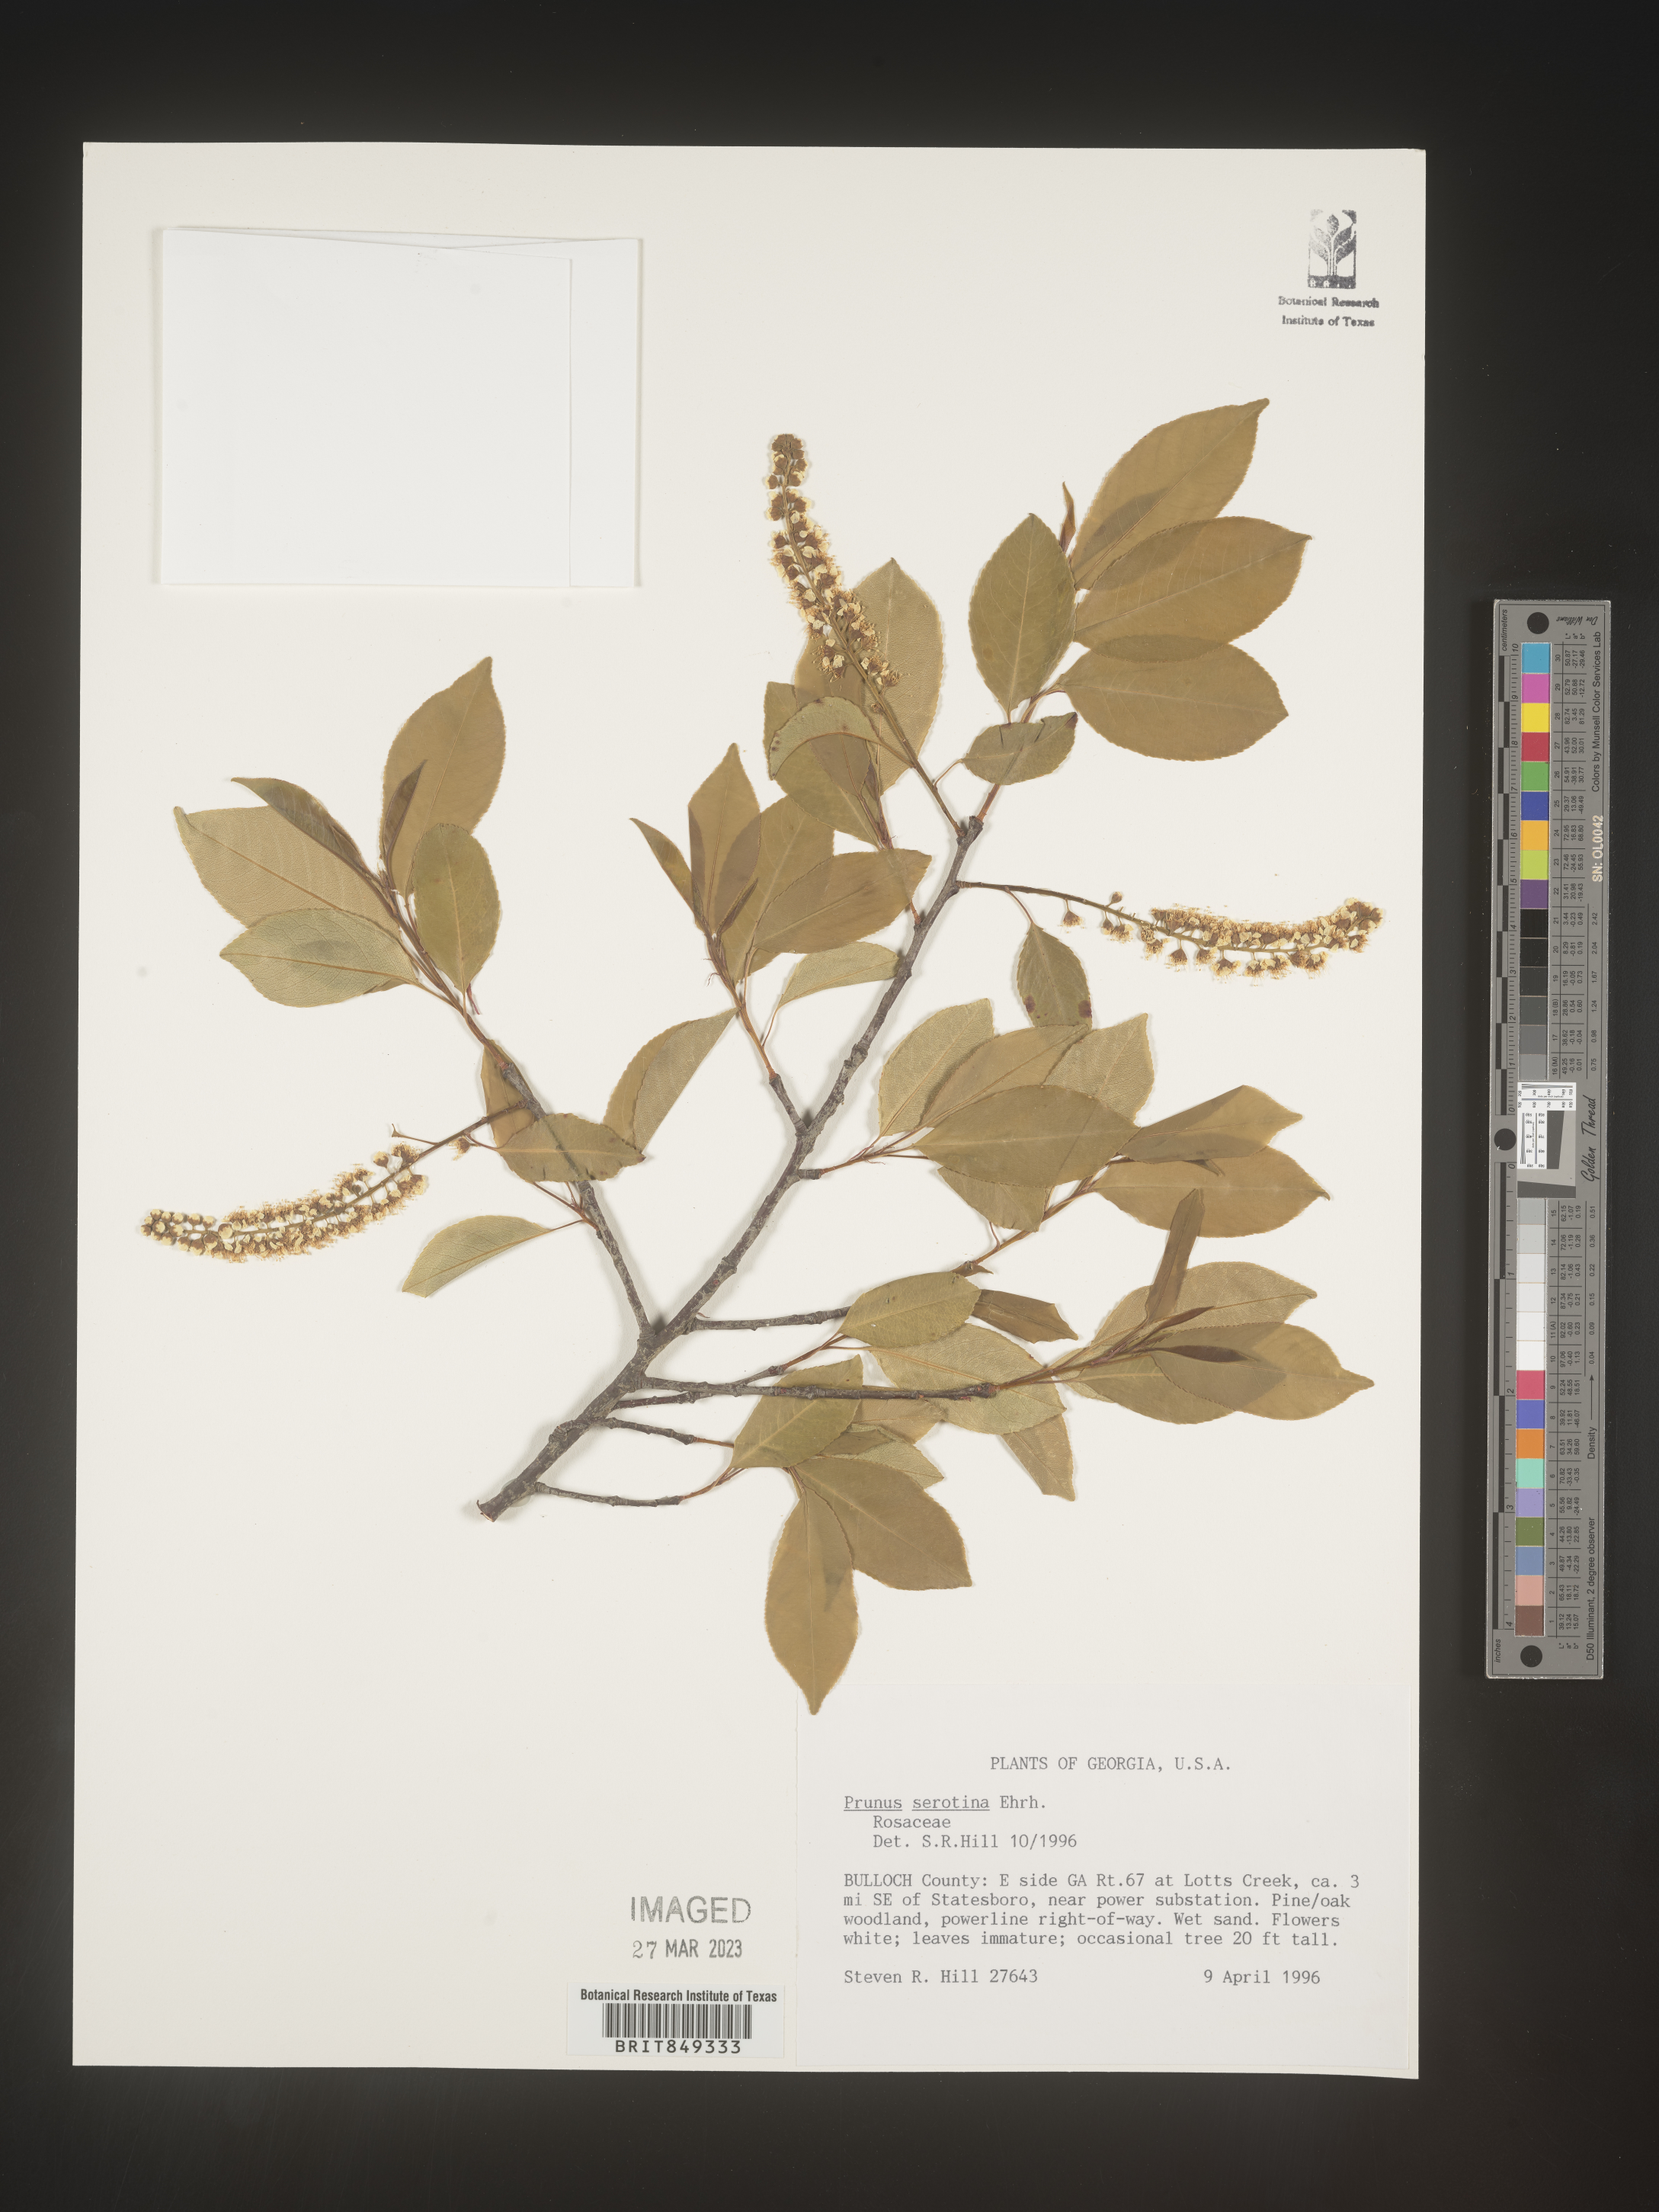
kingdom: Plantae
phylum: Tracheophyta
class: Magnoliopsida
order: Rosales
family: Rosaceae
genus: Prunus
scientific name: Prunus serotina
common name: Black cherry
